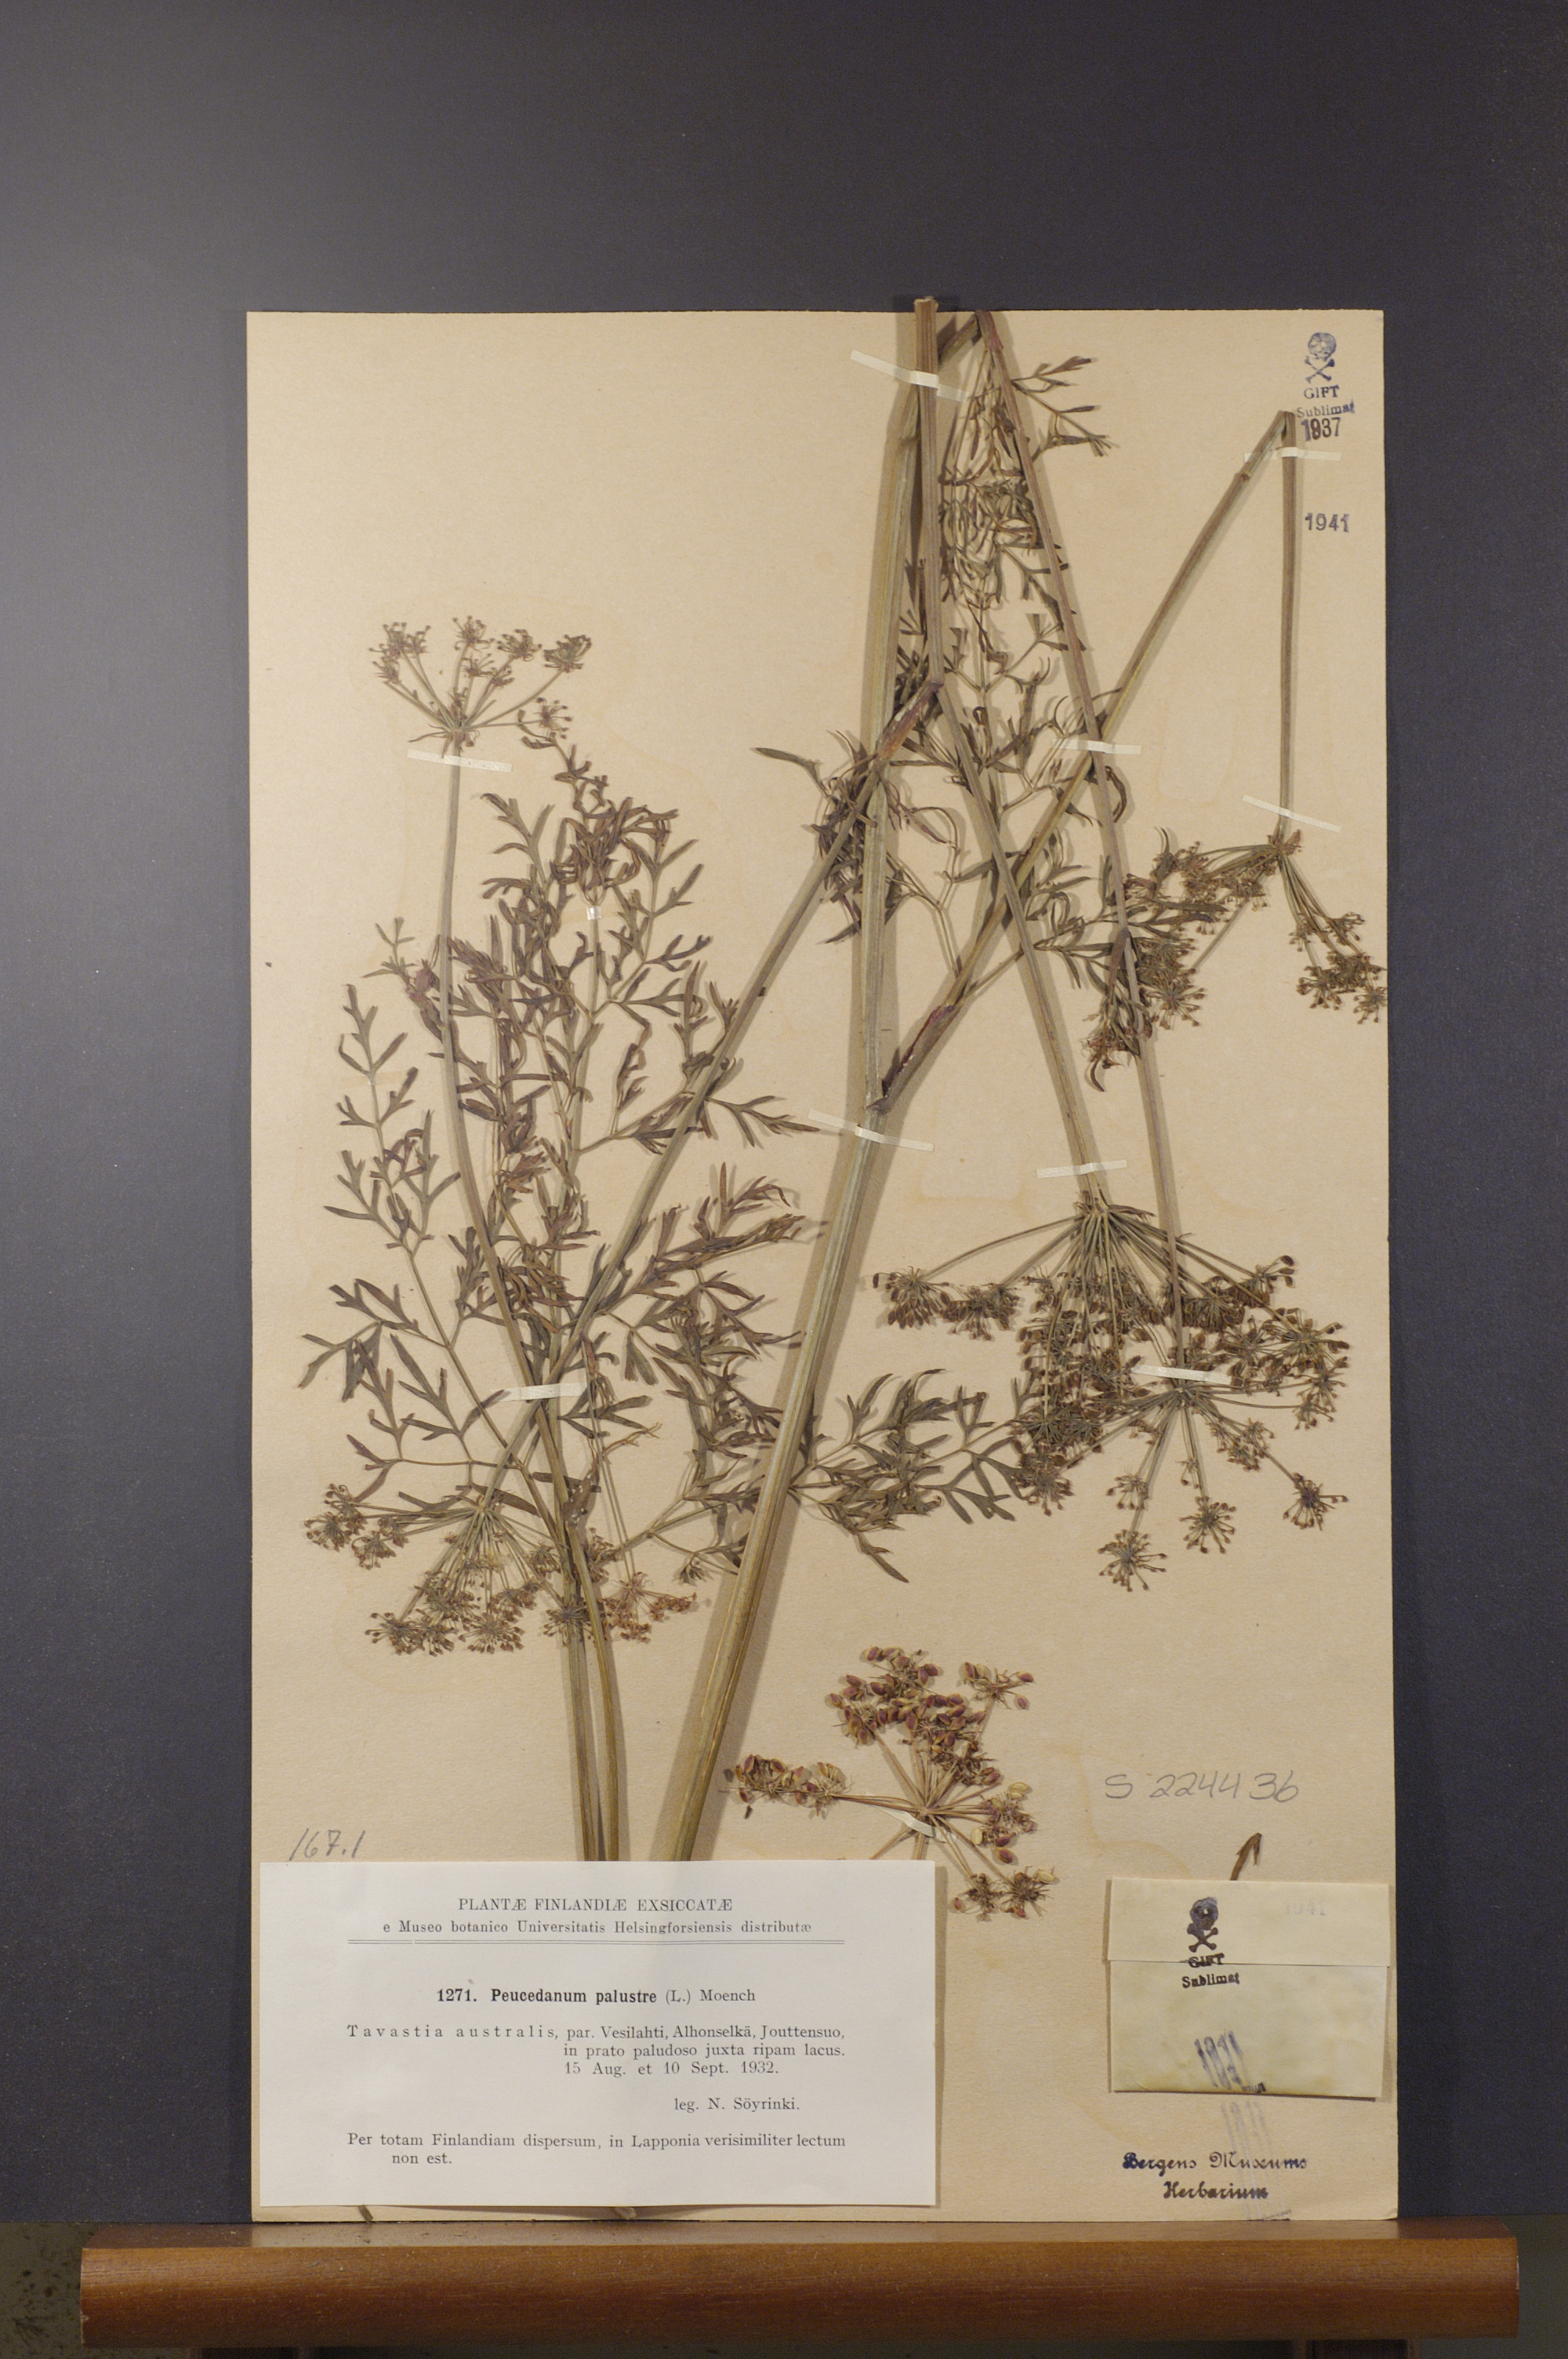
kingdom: Plantae
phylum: Tracheophyta
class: Magnoliopsida
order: Apiales
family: Apiaceae
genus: Thysselinum
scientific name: Thysselinum palustre
